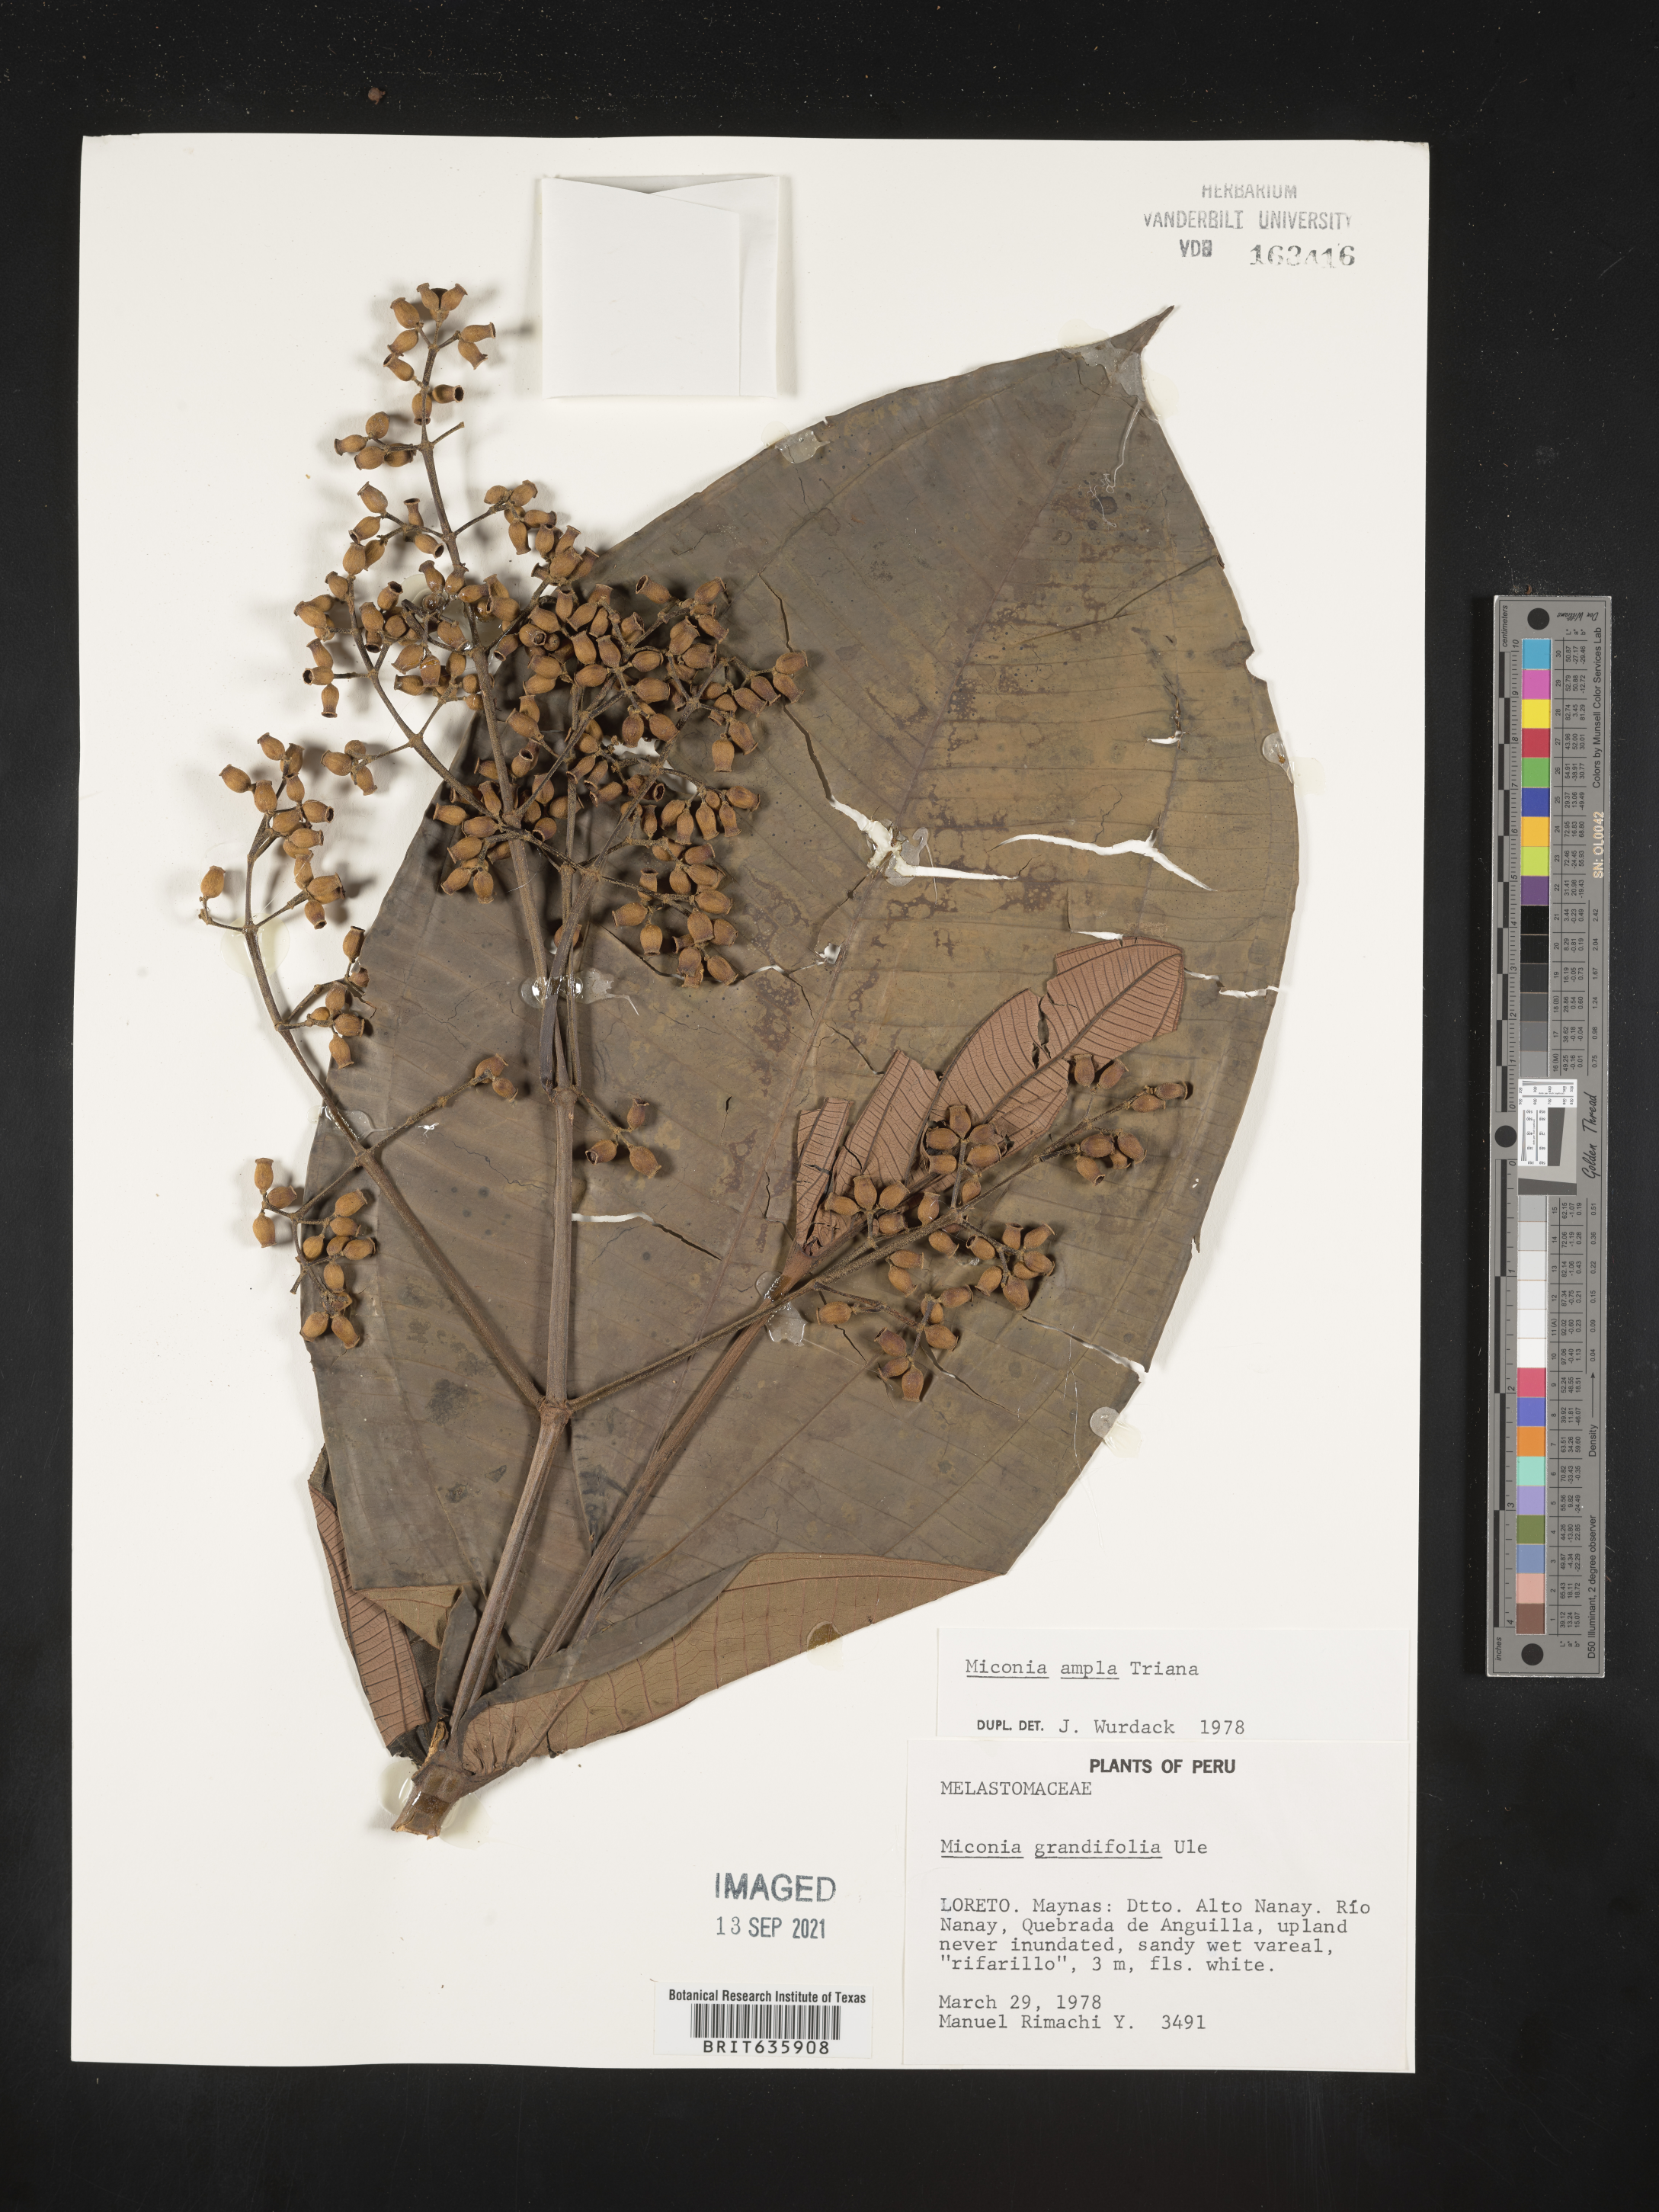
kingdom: Plantae
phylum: Tracheophyta
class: Magnoliopsida
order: Myrtales
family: Melastomataceae
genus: Miconia
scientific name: Miconia
